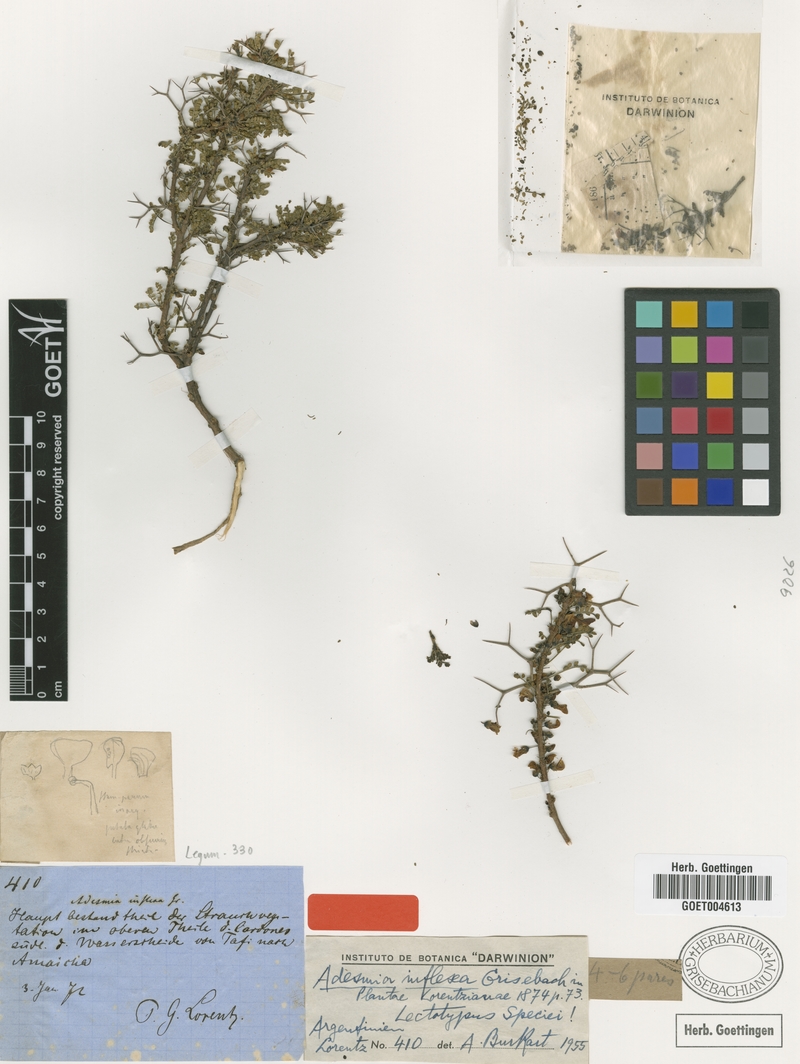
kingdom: Plantae
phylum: Tracheophyta
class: Magnoliopsida
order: Fabales
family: Fabaceae
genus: Adesmia
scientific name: Adesmia inflexa
